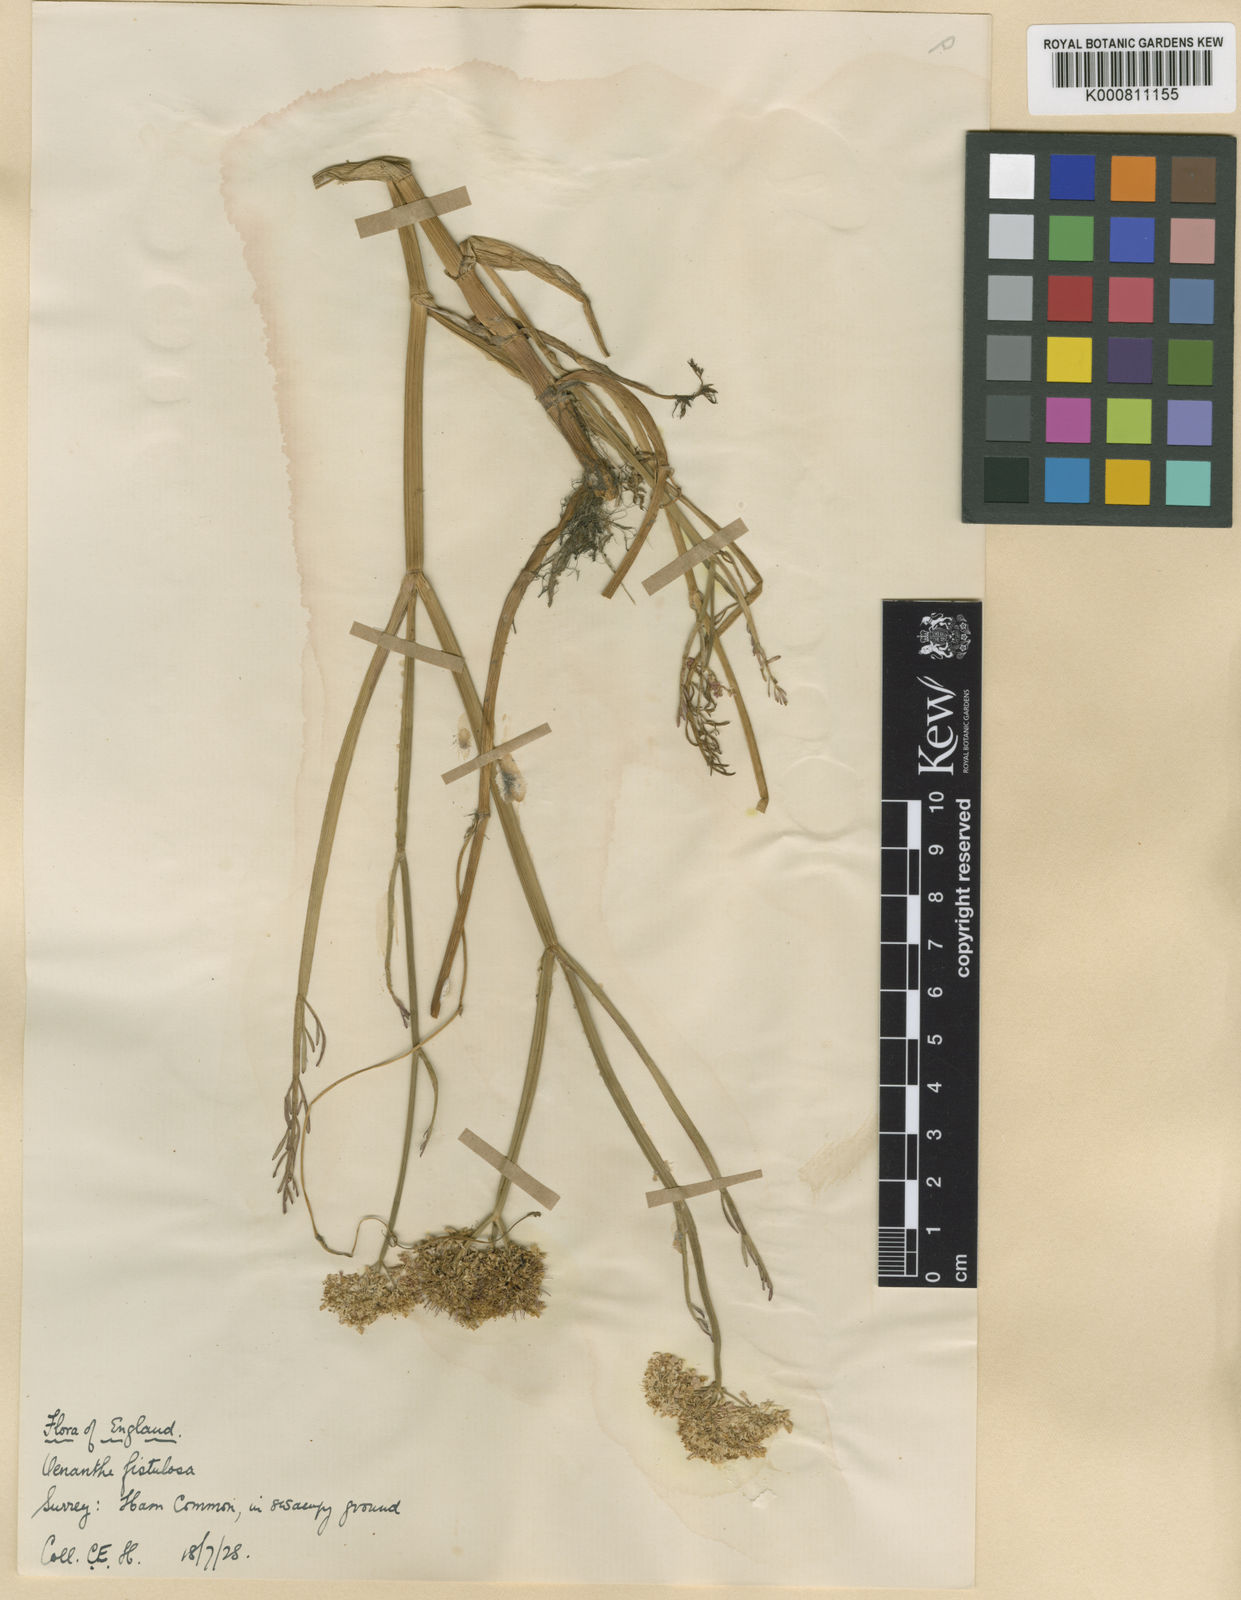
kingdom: Plantae
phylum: Tracheophyta
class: Magnoliopsida
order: Apiales
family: Apiaceae
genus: Oenanthe
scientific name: Oenanthe fistulosa
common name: Tubular water-dropwort
